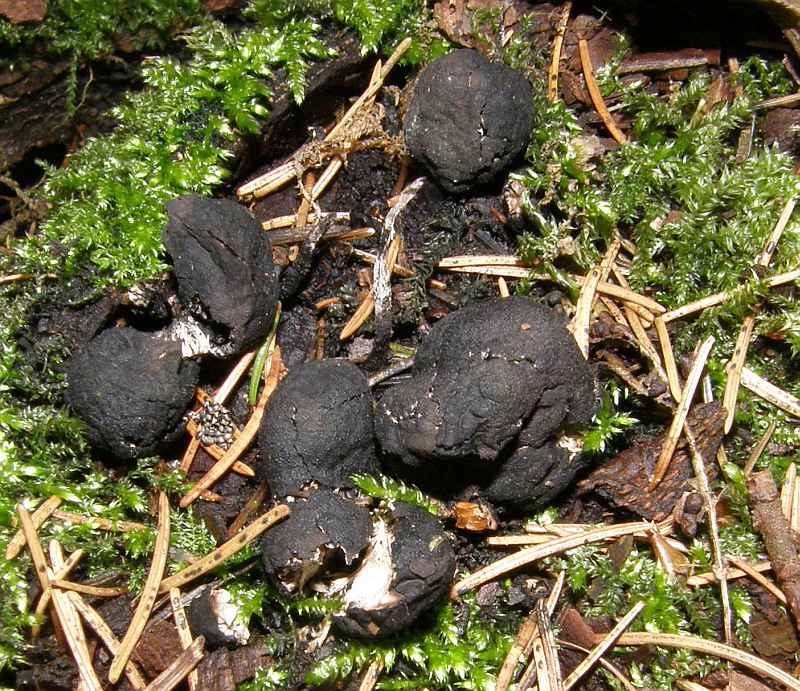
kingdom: Fungi
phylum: Ascomycota
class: Sordariomycetes
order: Xylariales
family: Xylariaceae
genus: Xylaria
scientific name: Xylaria polymorpha
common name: kølle-stødsvamp
